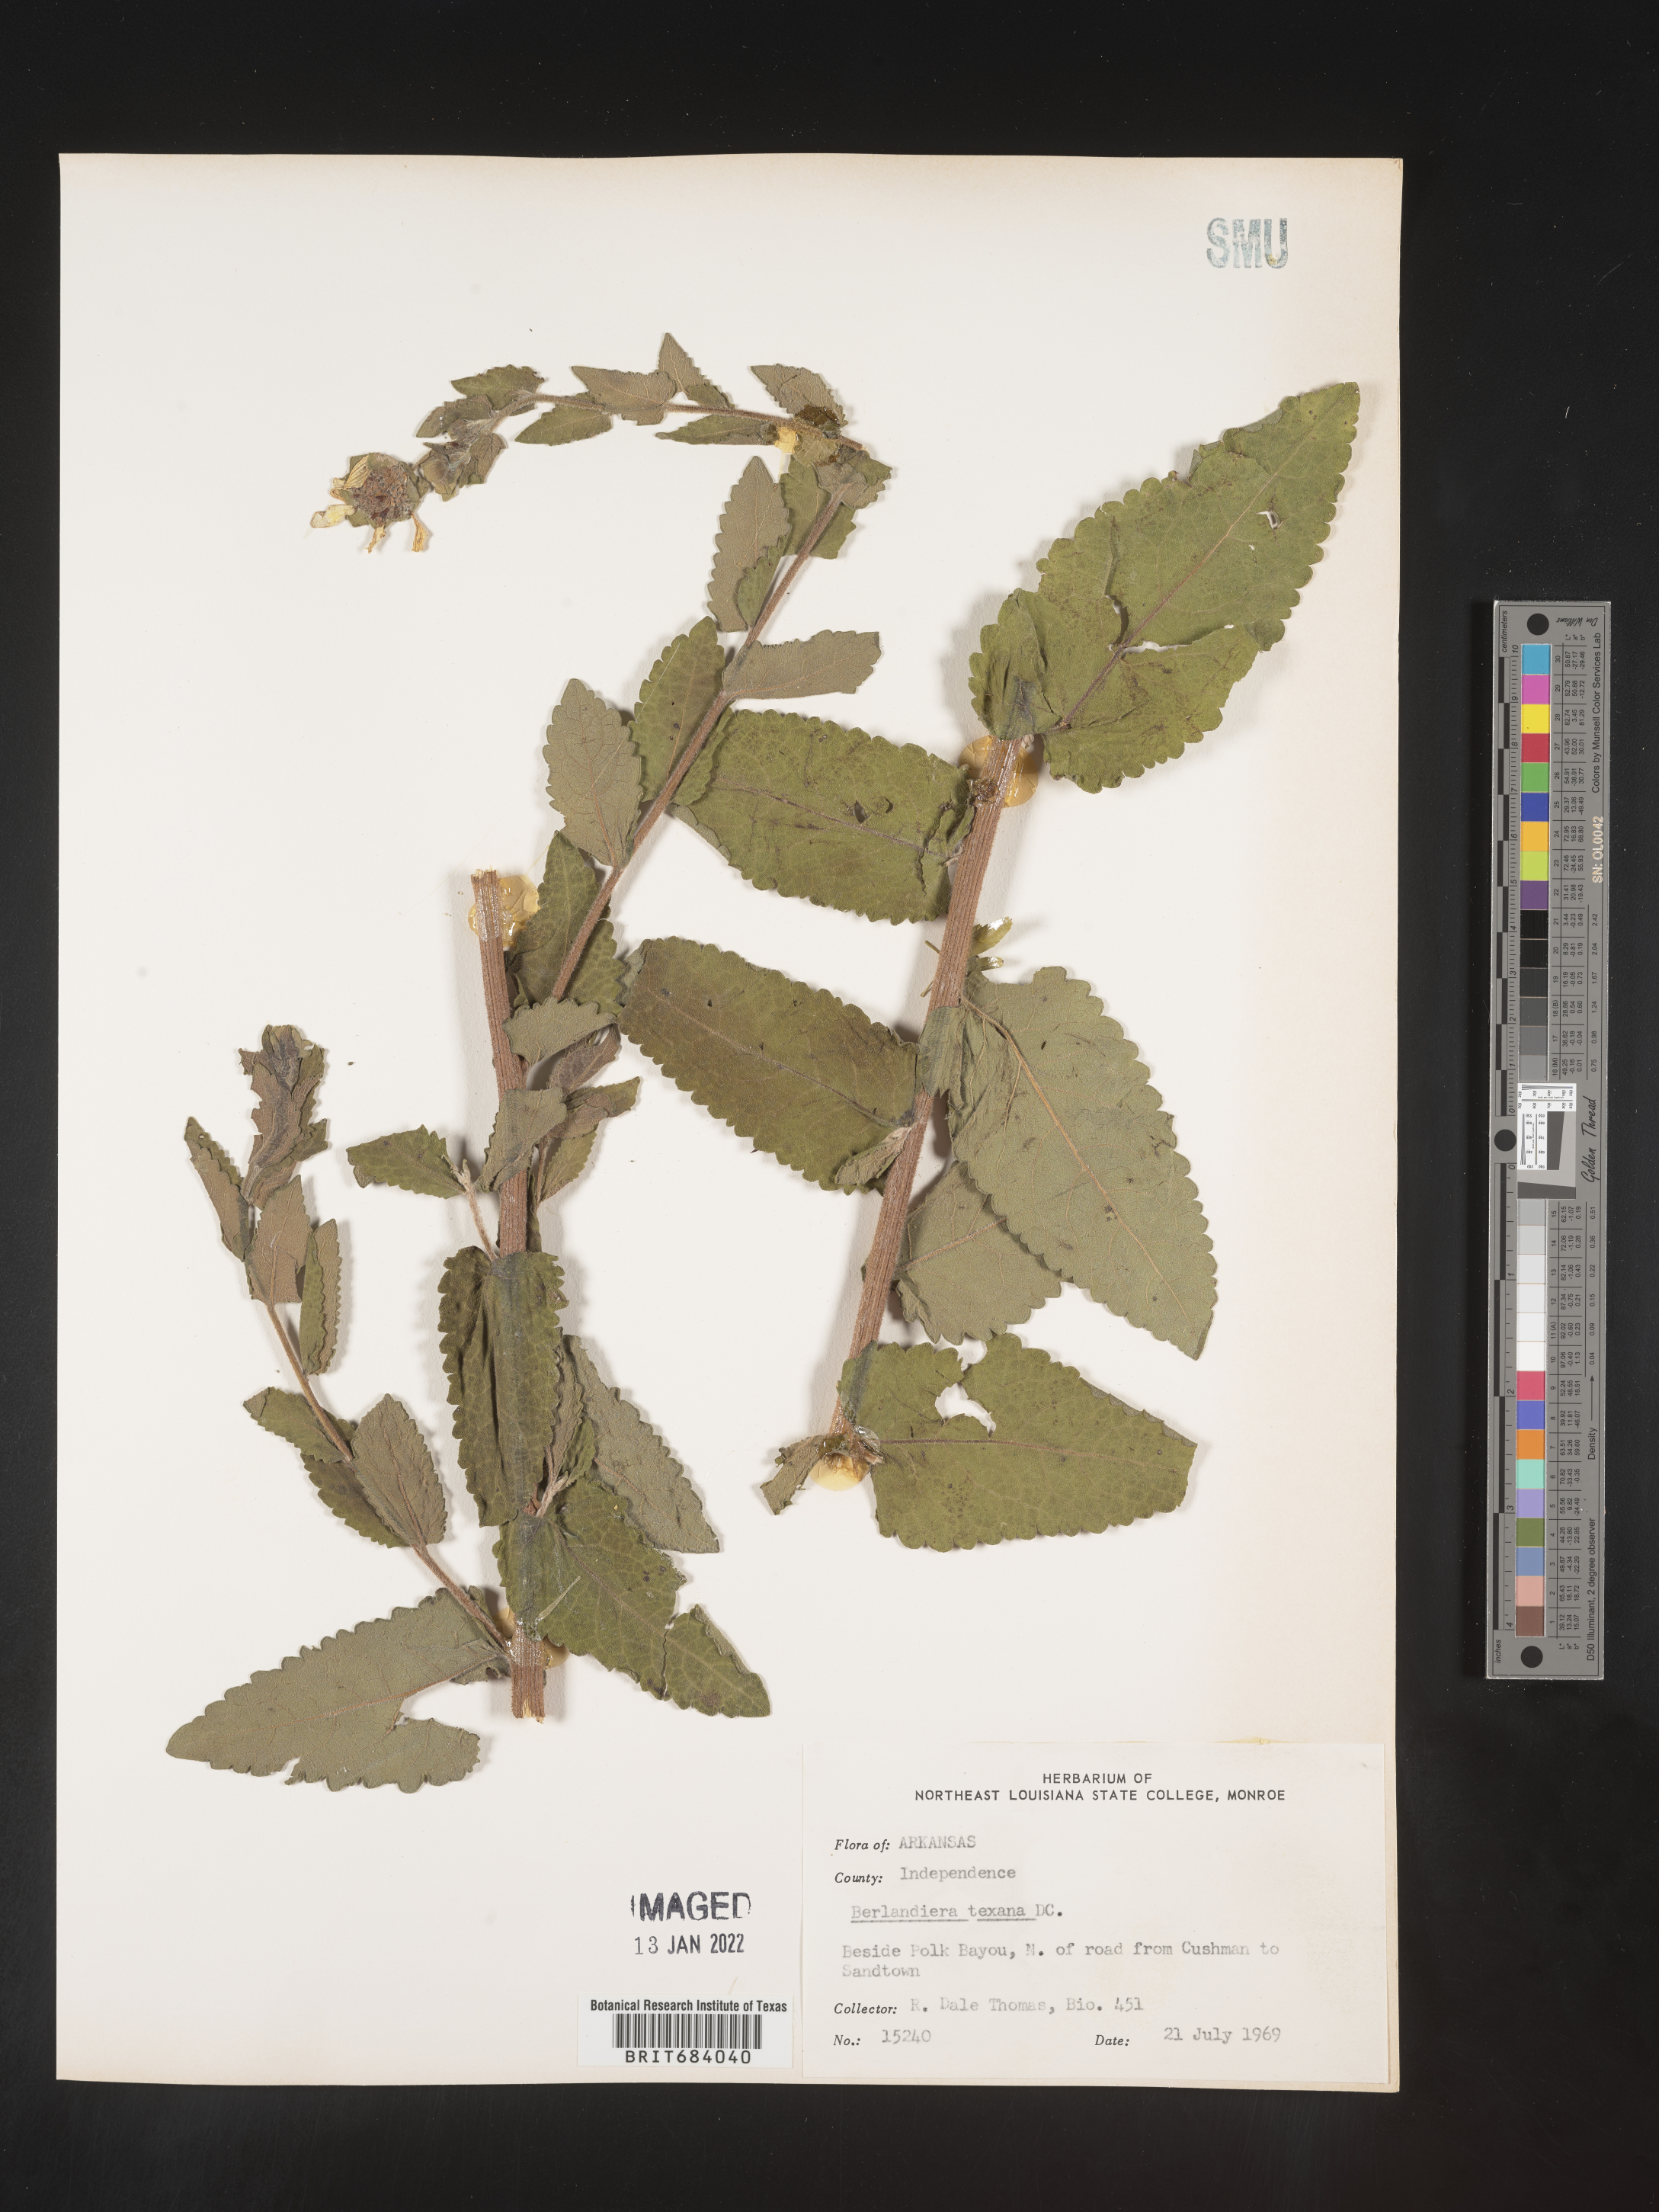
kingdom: Plantae
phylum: Tracheophyta
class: Magnoliopsida
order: Asterales
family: Asteraceae
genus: Berlandiera
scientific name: Berlandiera texana
